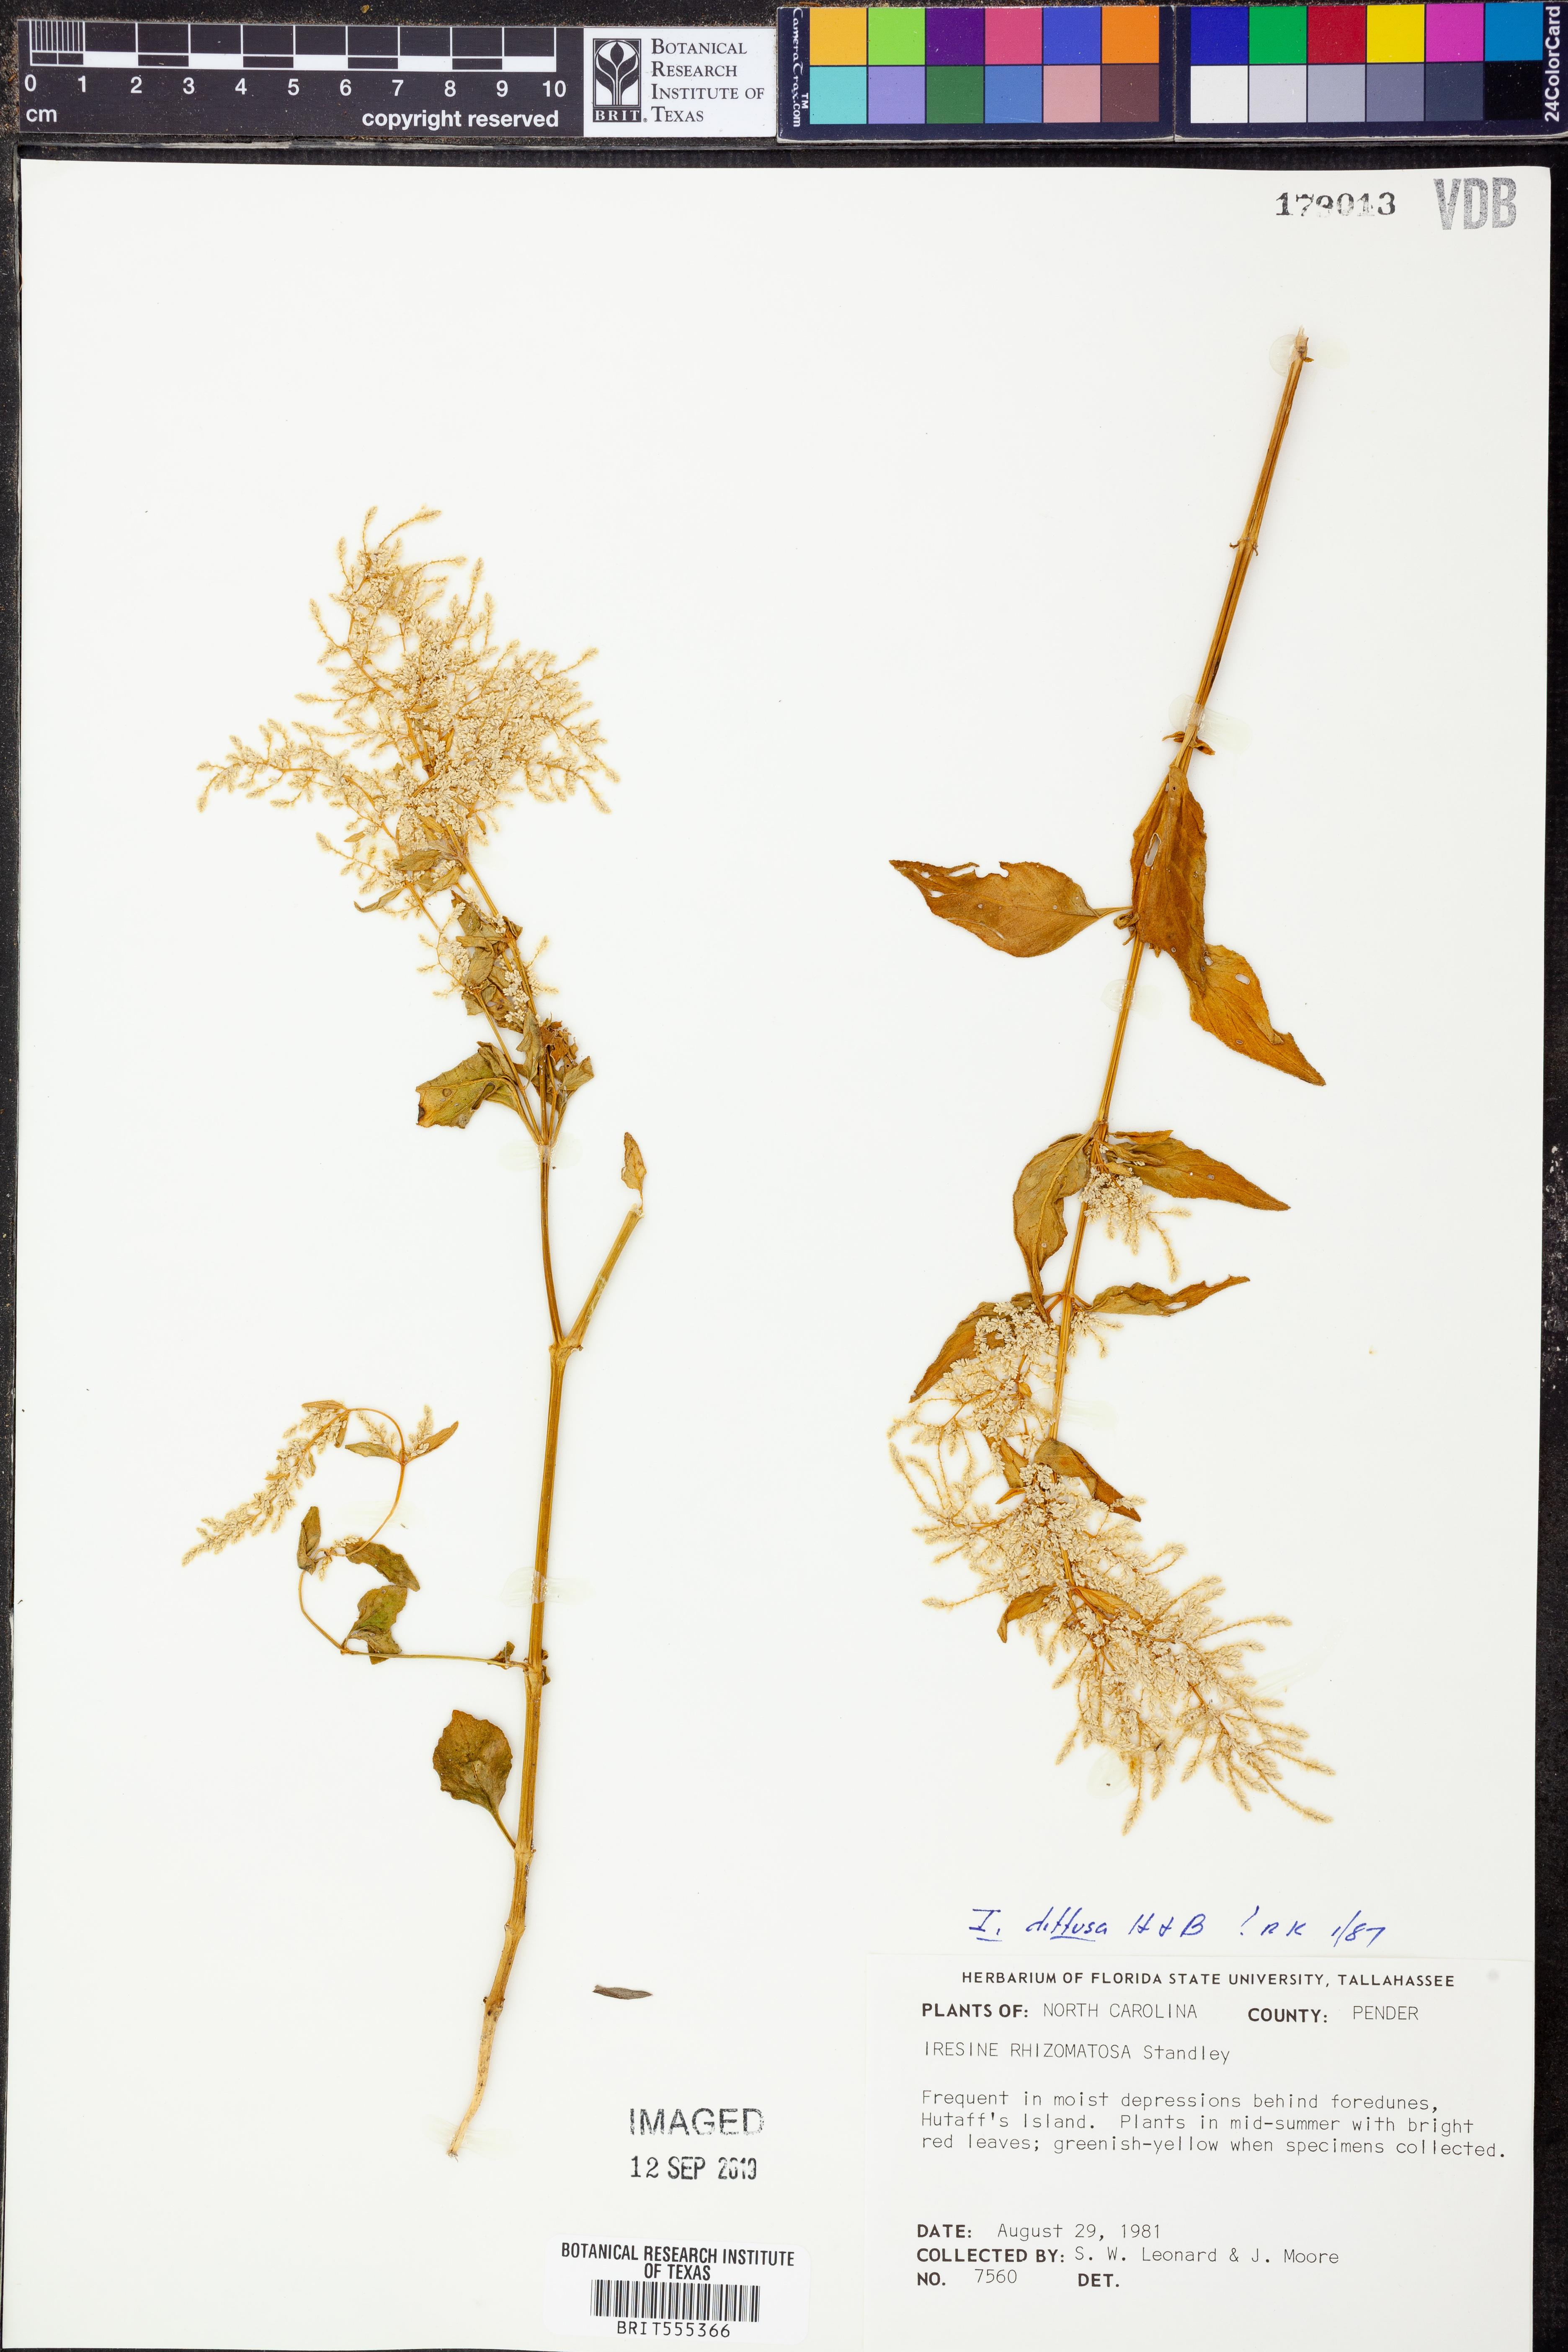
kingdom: Plantae
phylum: Tracheophyta
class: Magnoliopsida
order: Caryophyllales
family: Amaranthaceae
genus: Iresine
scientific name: Iresine diffusa
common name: Juba's-bush
